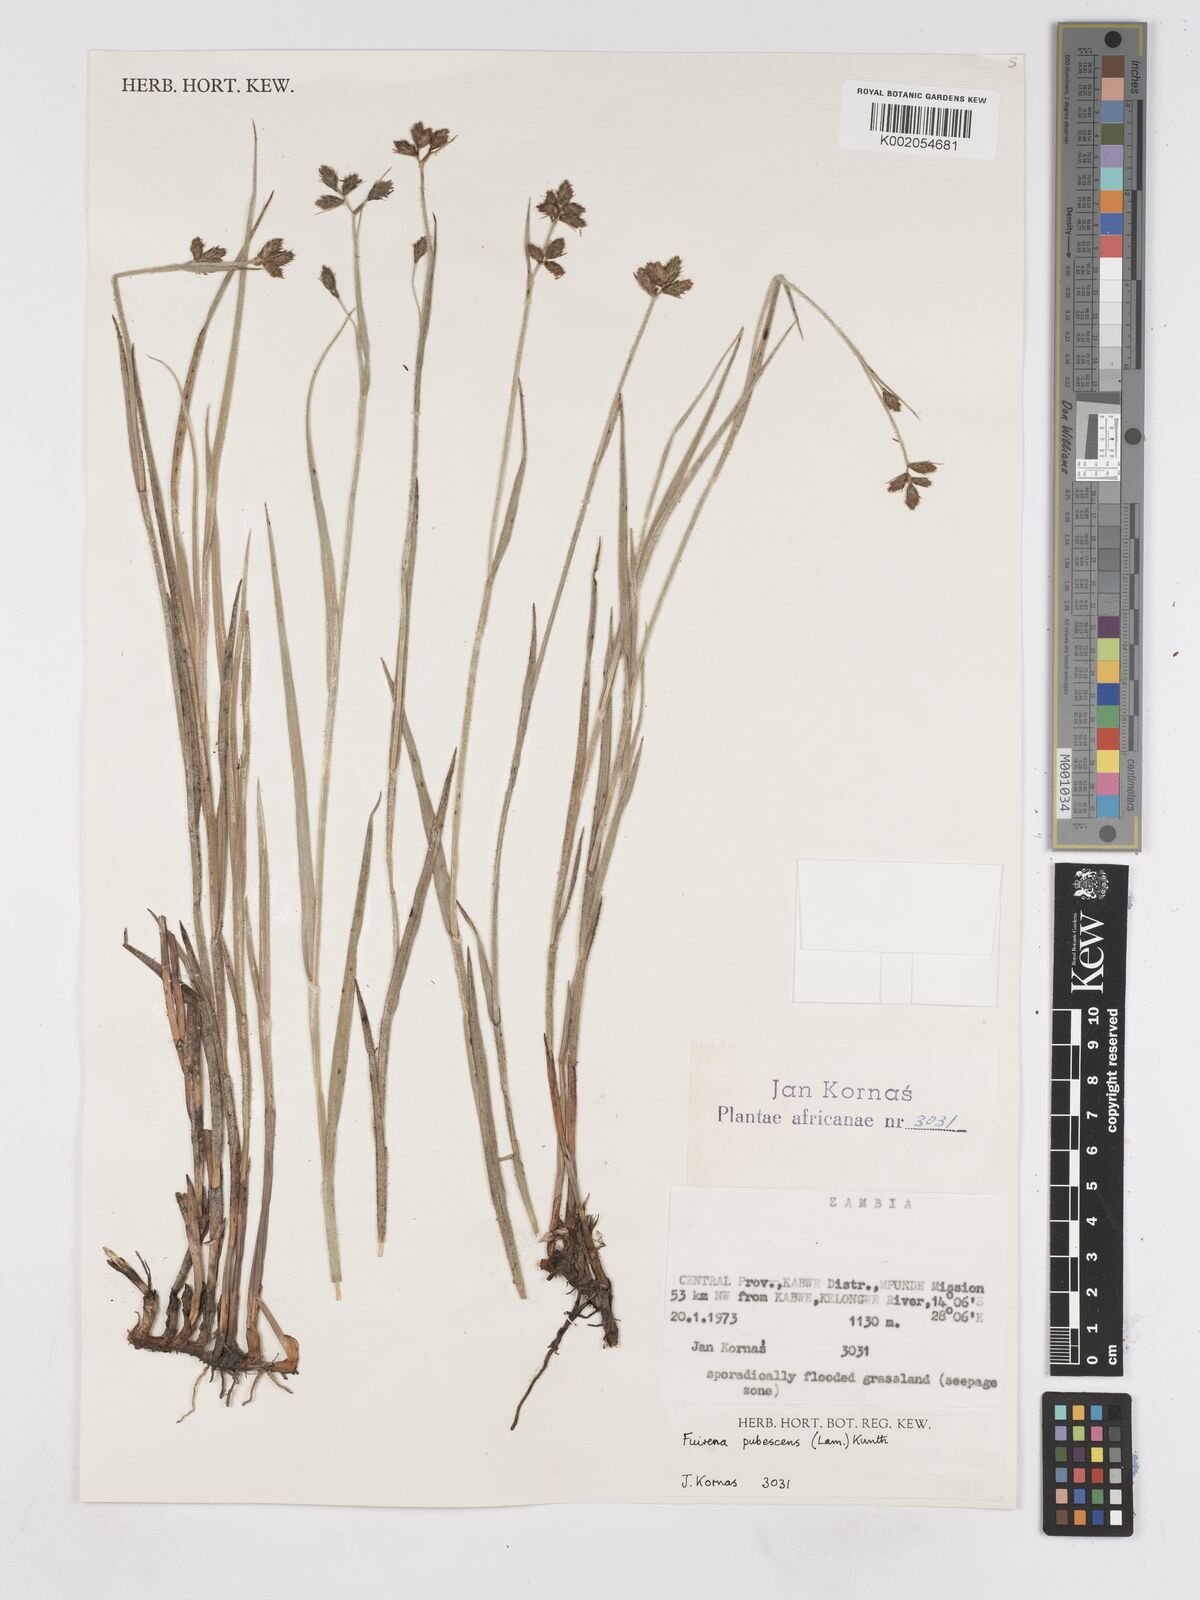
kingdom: Plantae
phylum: Tracheophyta
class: Liliopsida
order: Poales
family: Cyperaceae
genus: Fuirena
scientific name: Fuirena pachyrrhiza
